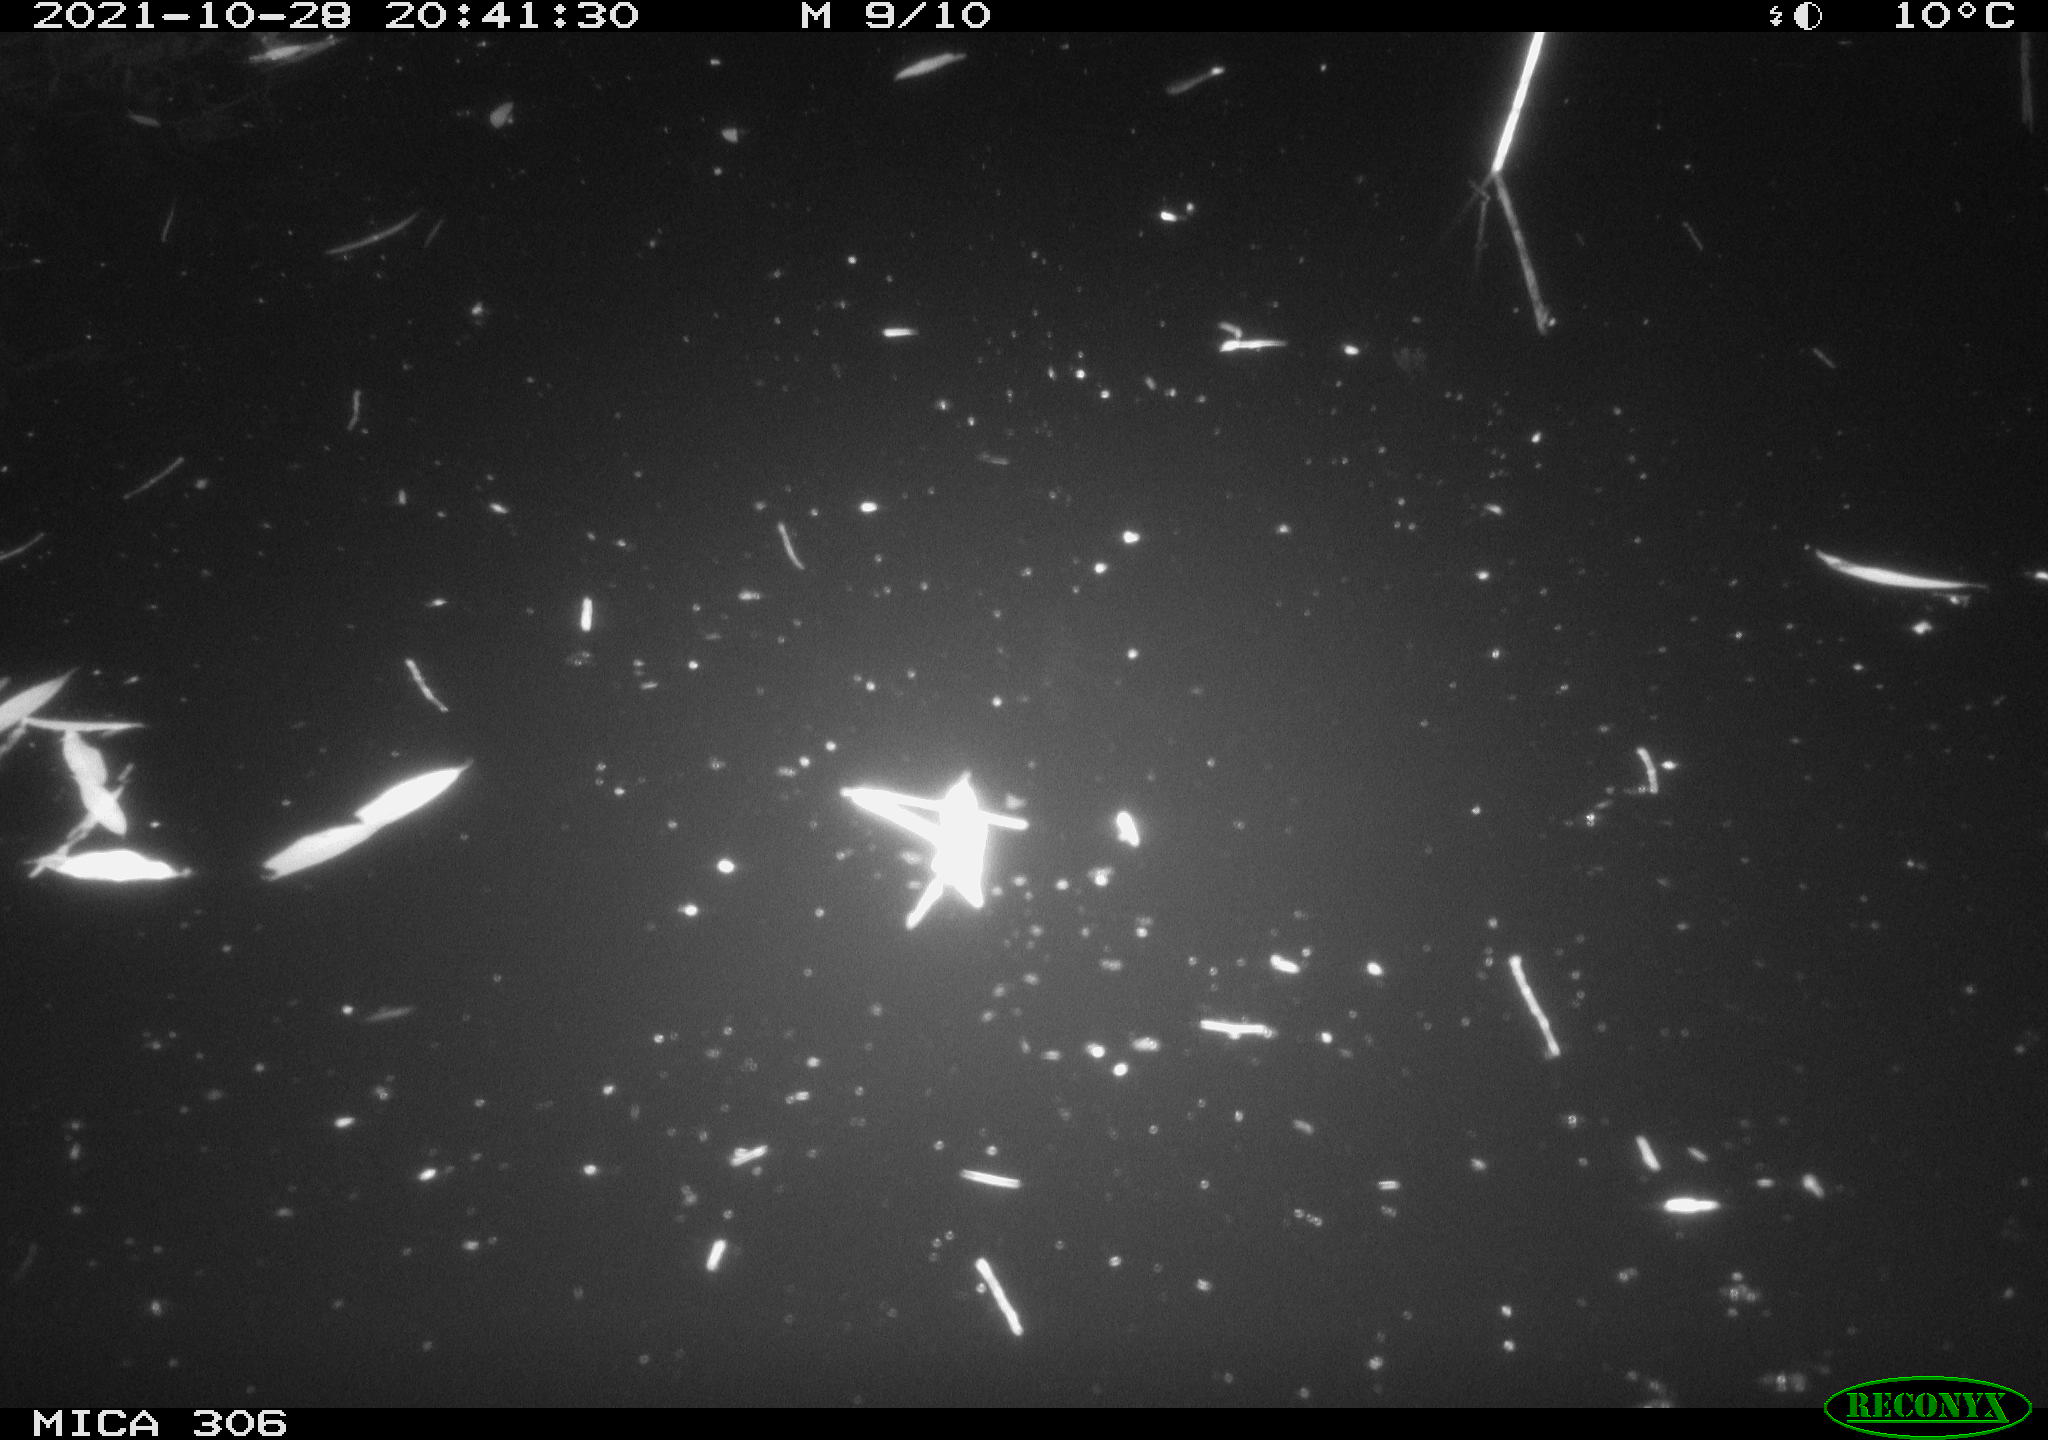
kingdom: Animalia
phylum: Chordata
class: Mammalia
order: Rodentia
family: Cricetidae
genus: Ondatra
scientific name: Ondatra zibethicus
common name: Muskrat
